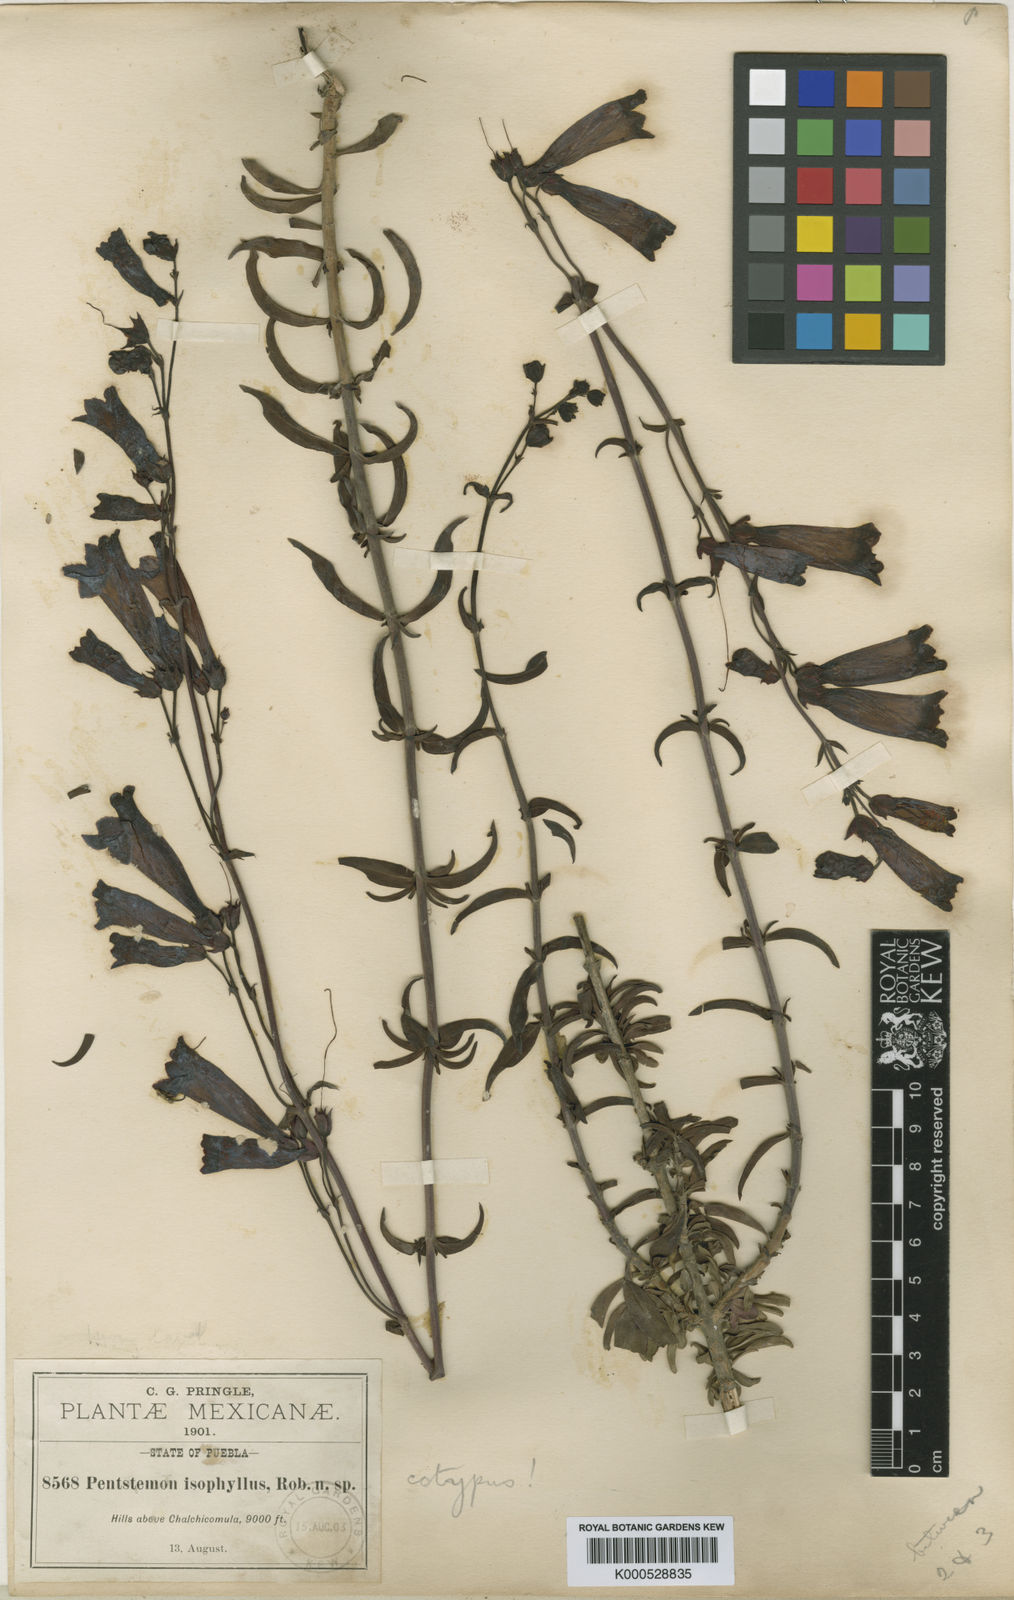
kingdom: Plantae
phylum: Tracheophyta
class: Magnoliopsida
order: Lamiales
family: Plantaginaceae
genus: Penstemon
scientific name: Penstemon isophyllus
